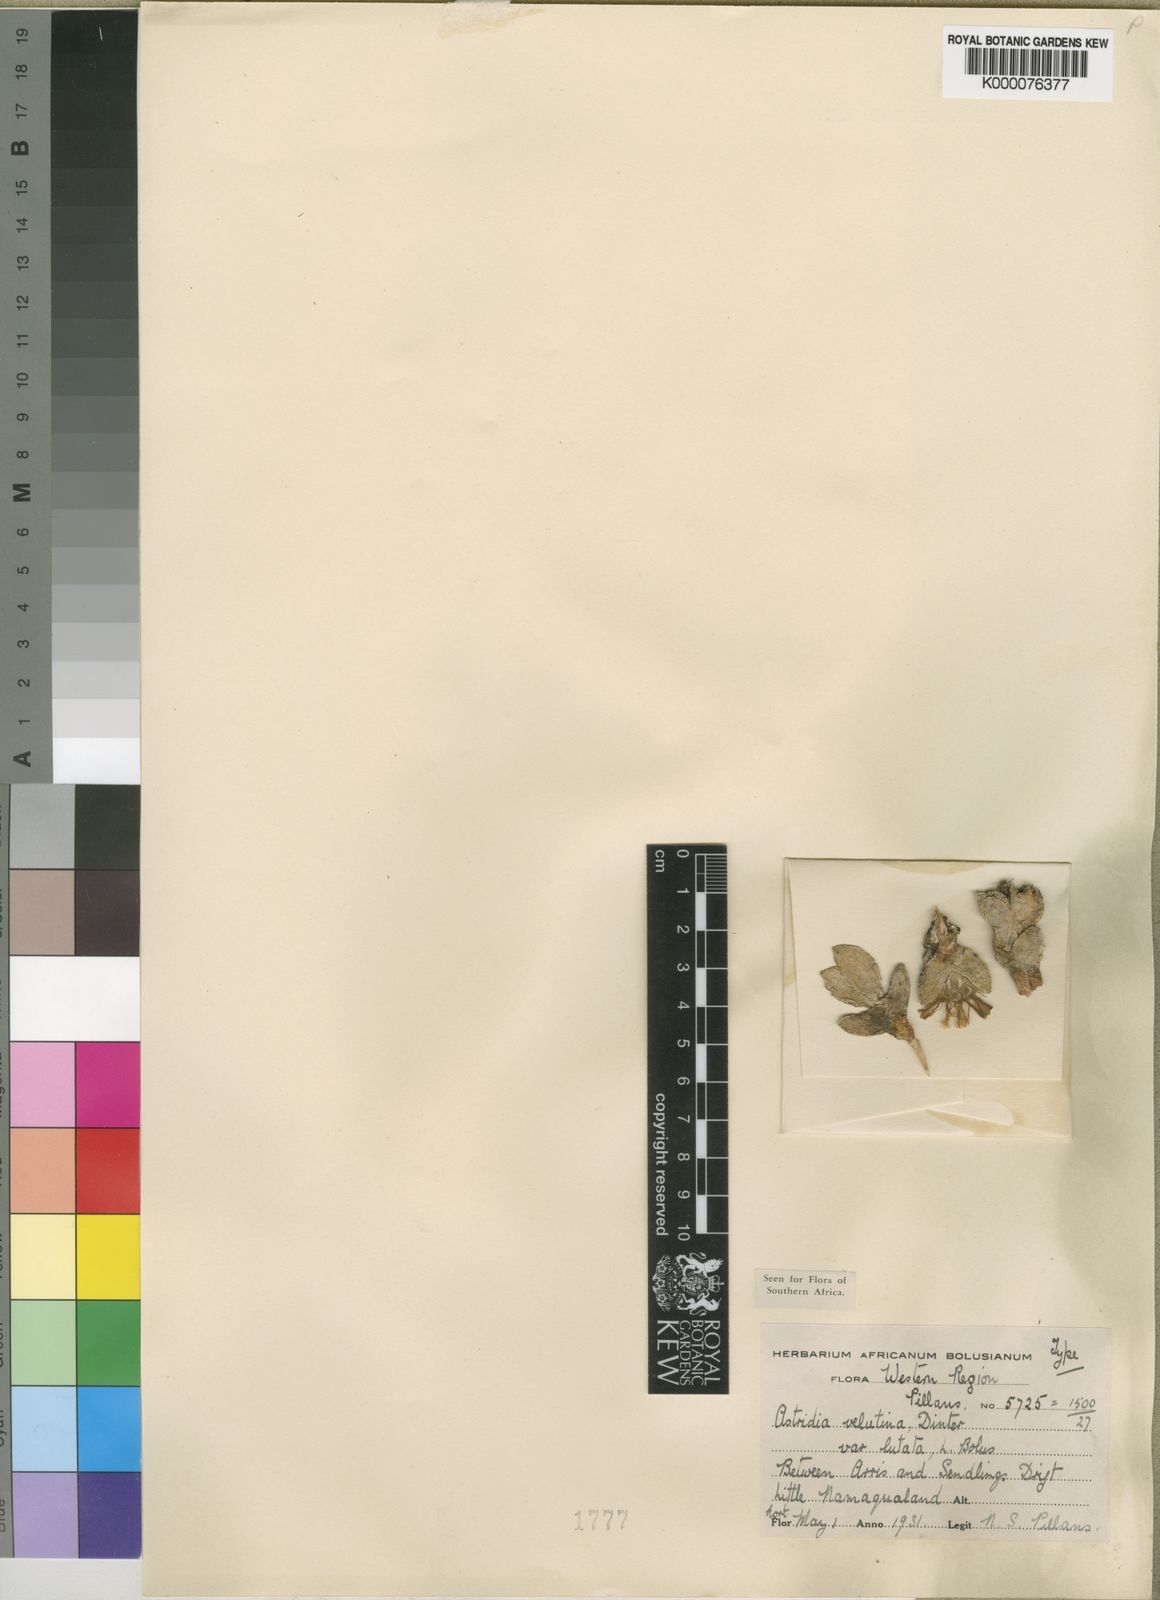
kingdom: Plantae
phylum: Tracheophyta
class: Magnoliopsida
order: Caryophyllales
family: Aizoaceae
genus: Astridia
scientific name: Astridia velutina
